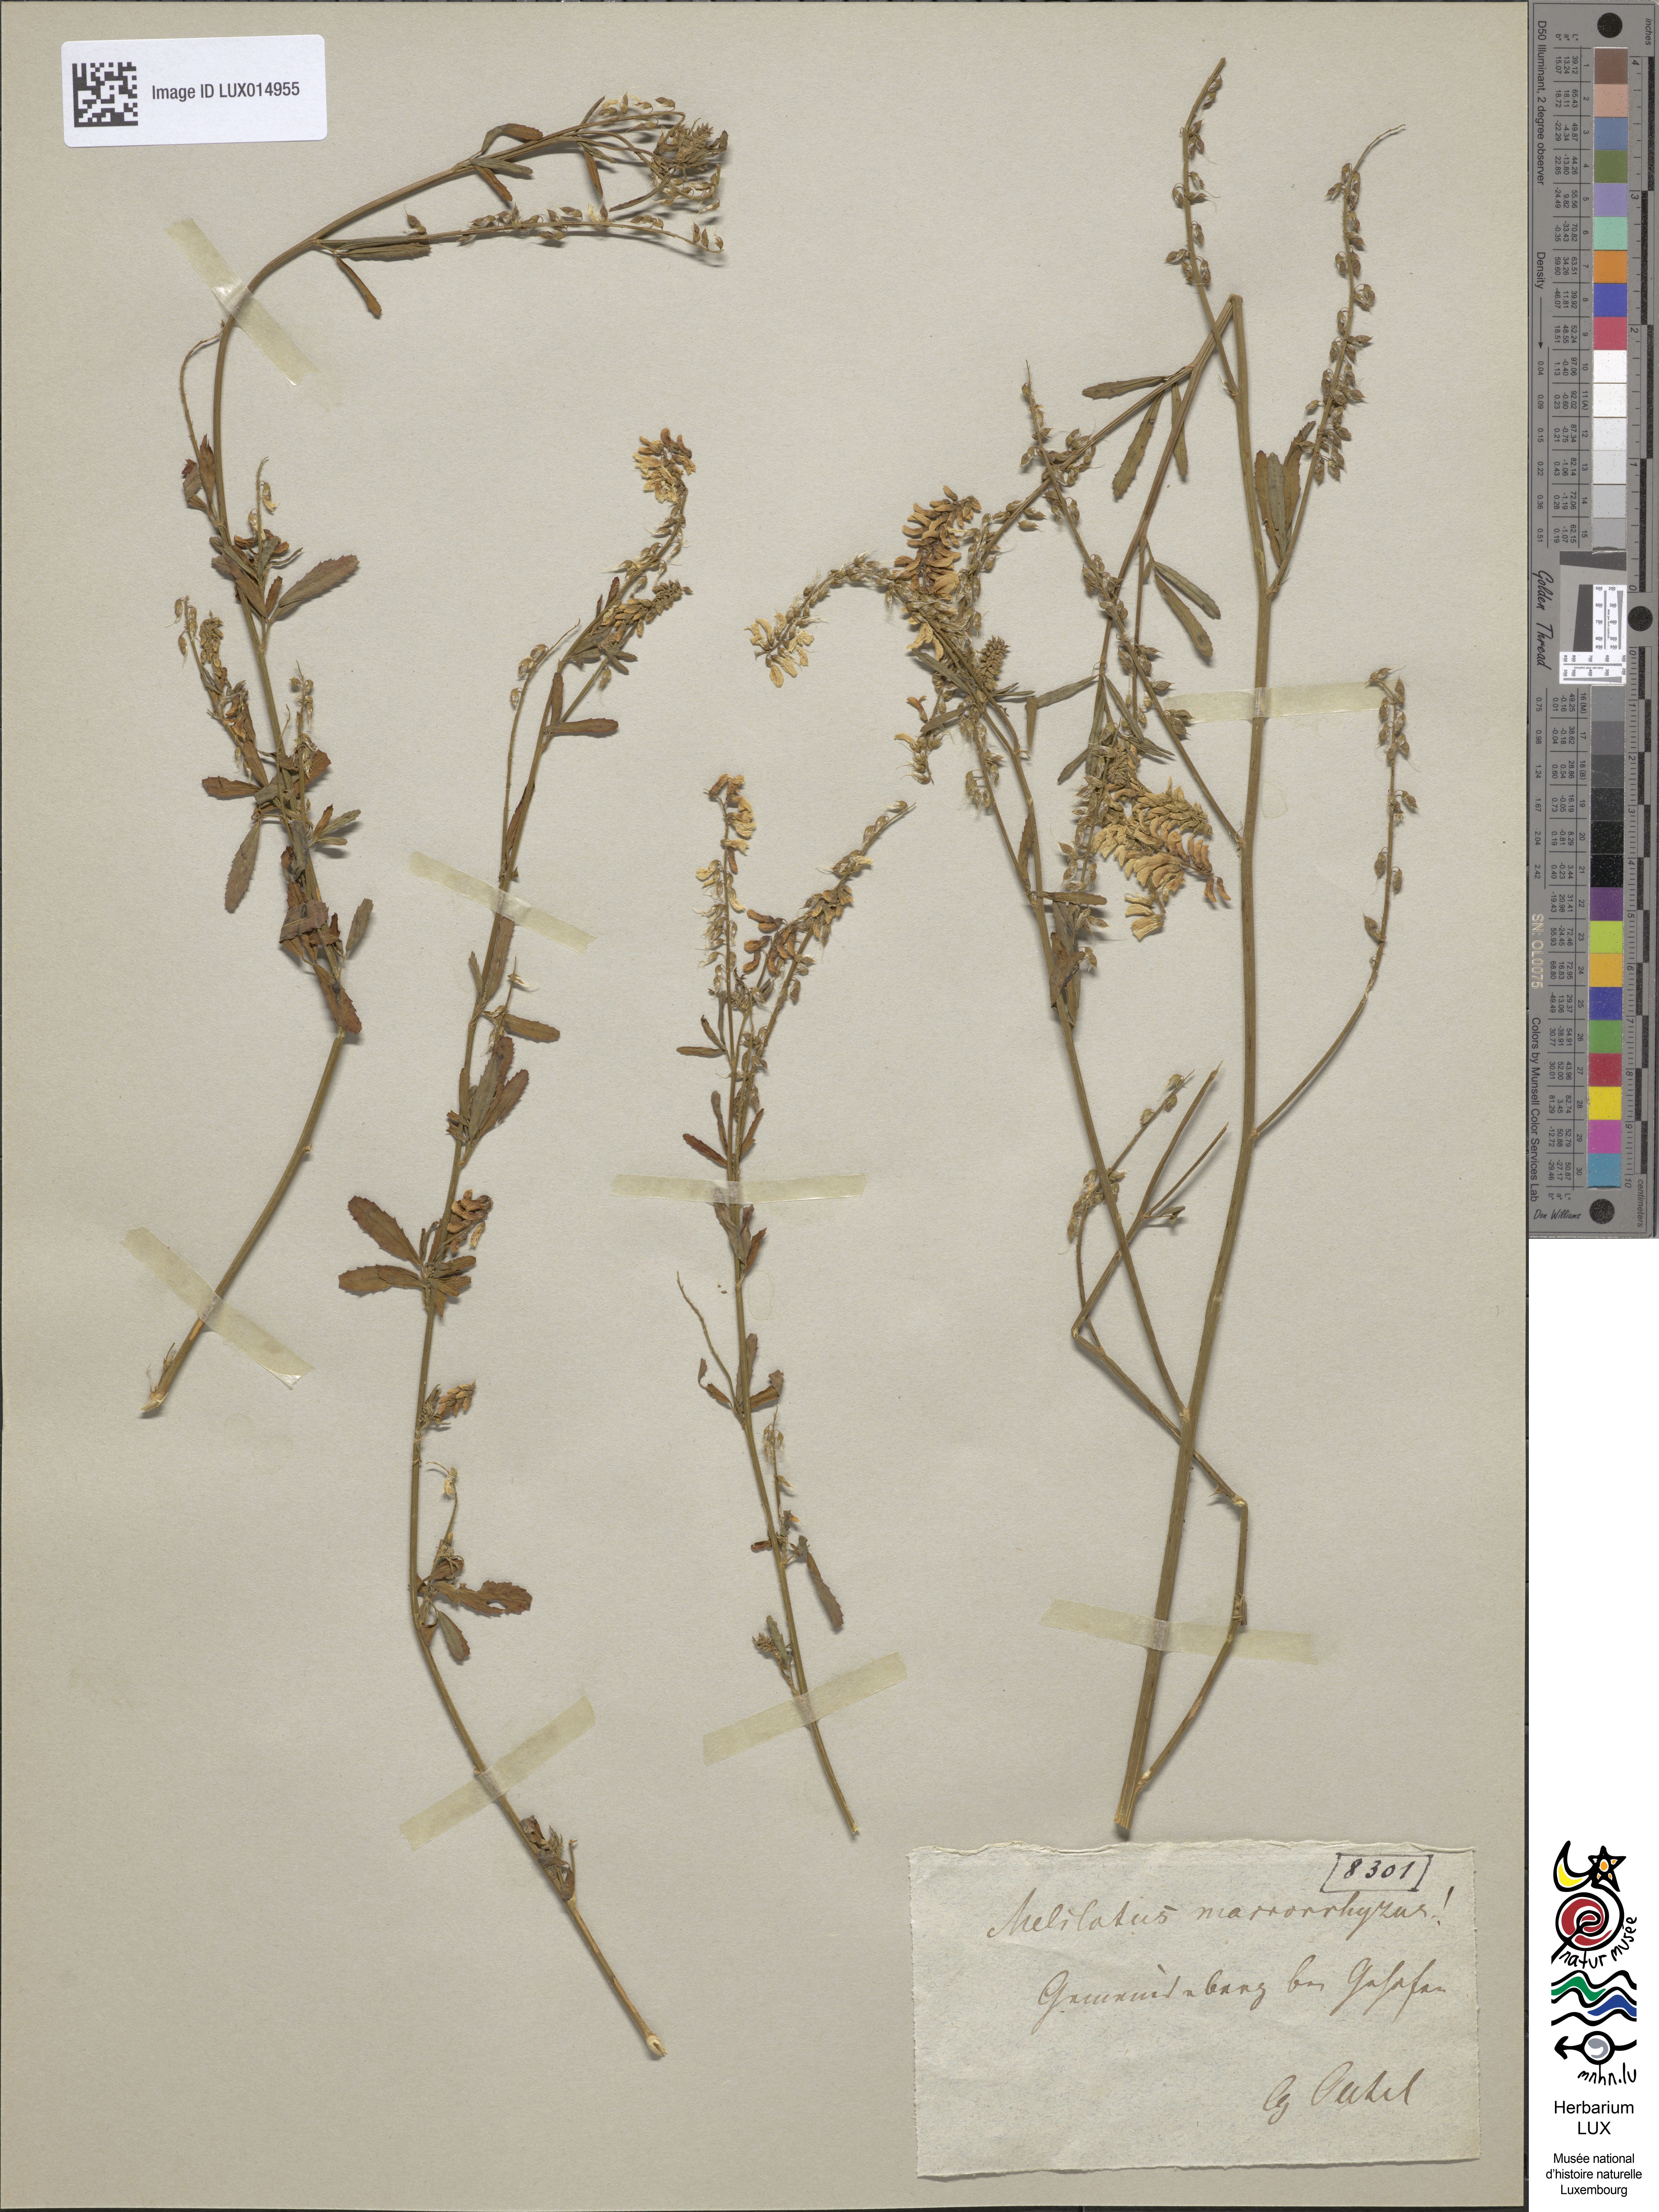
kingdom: Plantae
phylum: Tracheophyta
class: Magnoliopsida
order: Fabales
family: Fabaceae
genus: Melilotus
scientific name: Melilotus altissimus
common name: Tall melilot
